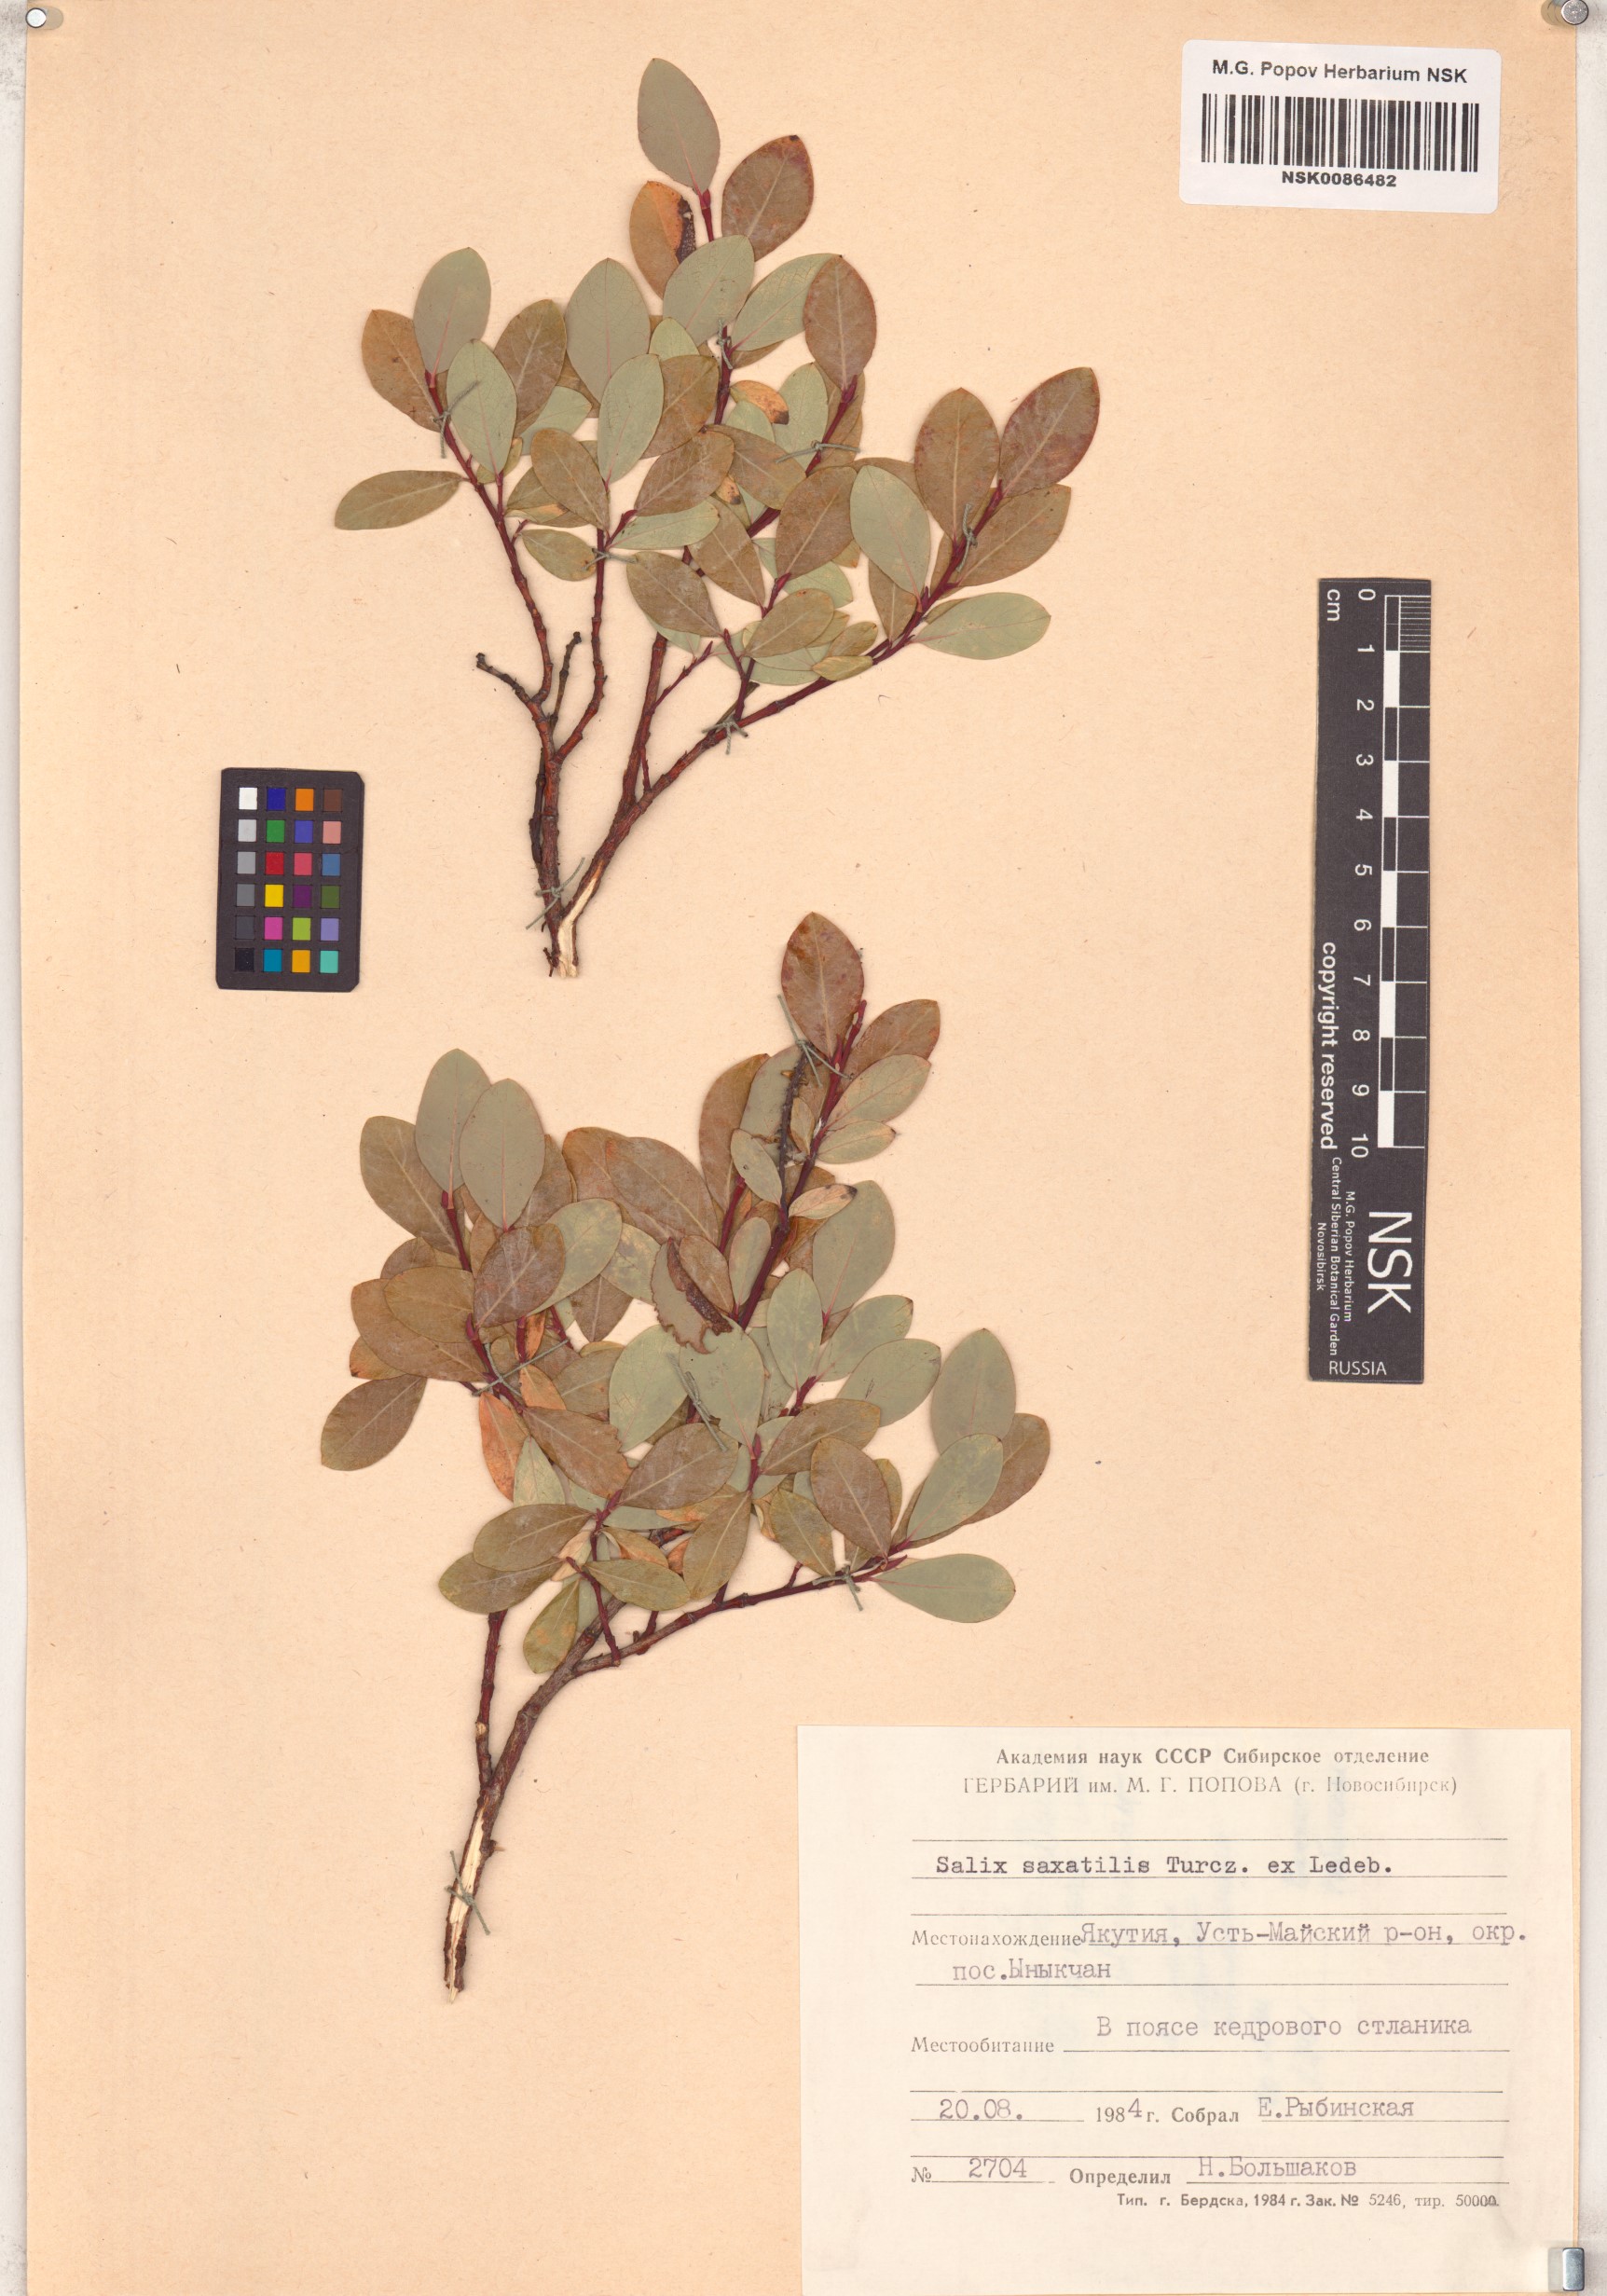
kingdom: Plantae
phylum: Tracheophyta
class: Magnoliopsida
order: Malpighiales
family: Salicaceae
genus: Salix
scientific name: Salix saxatilis
